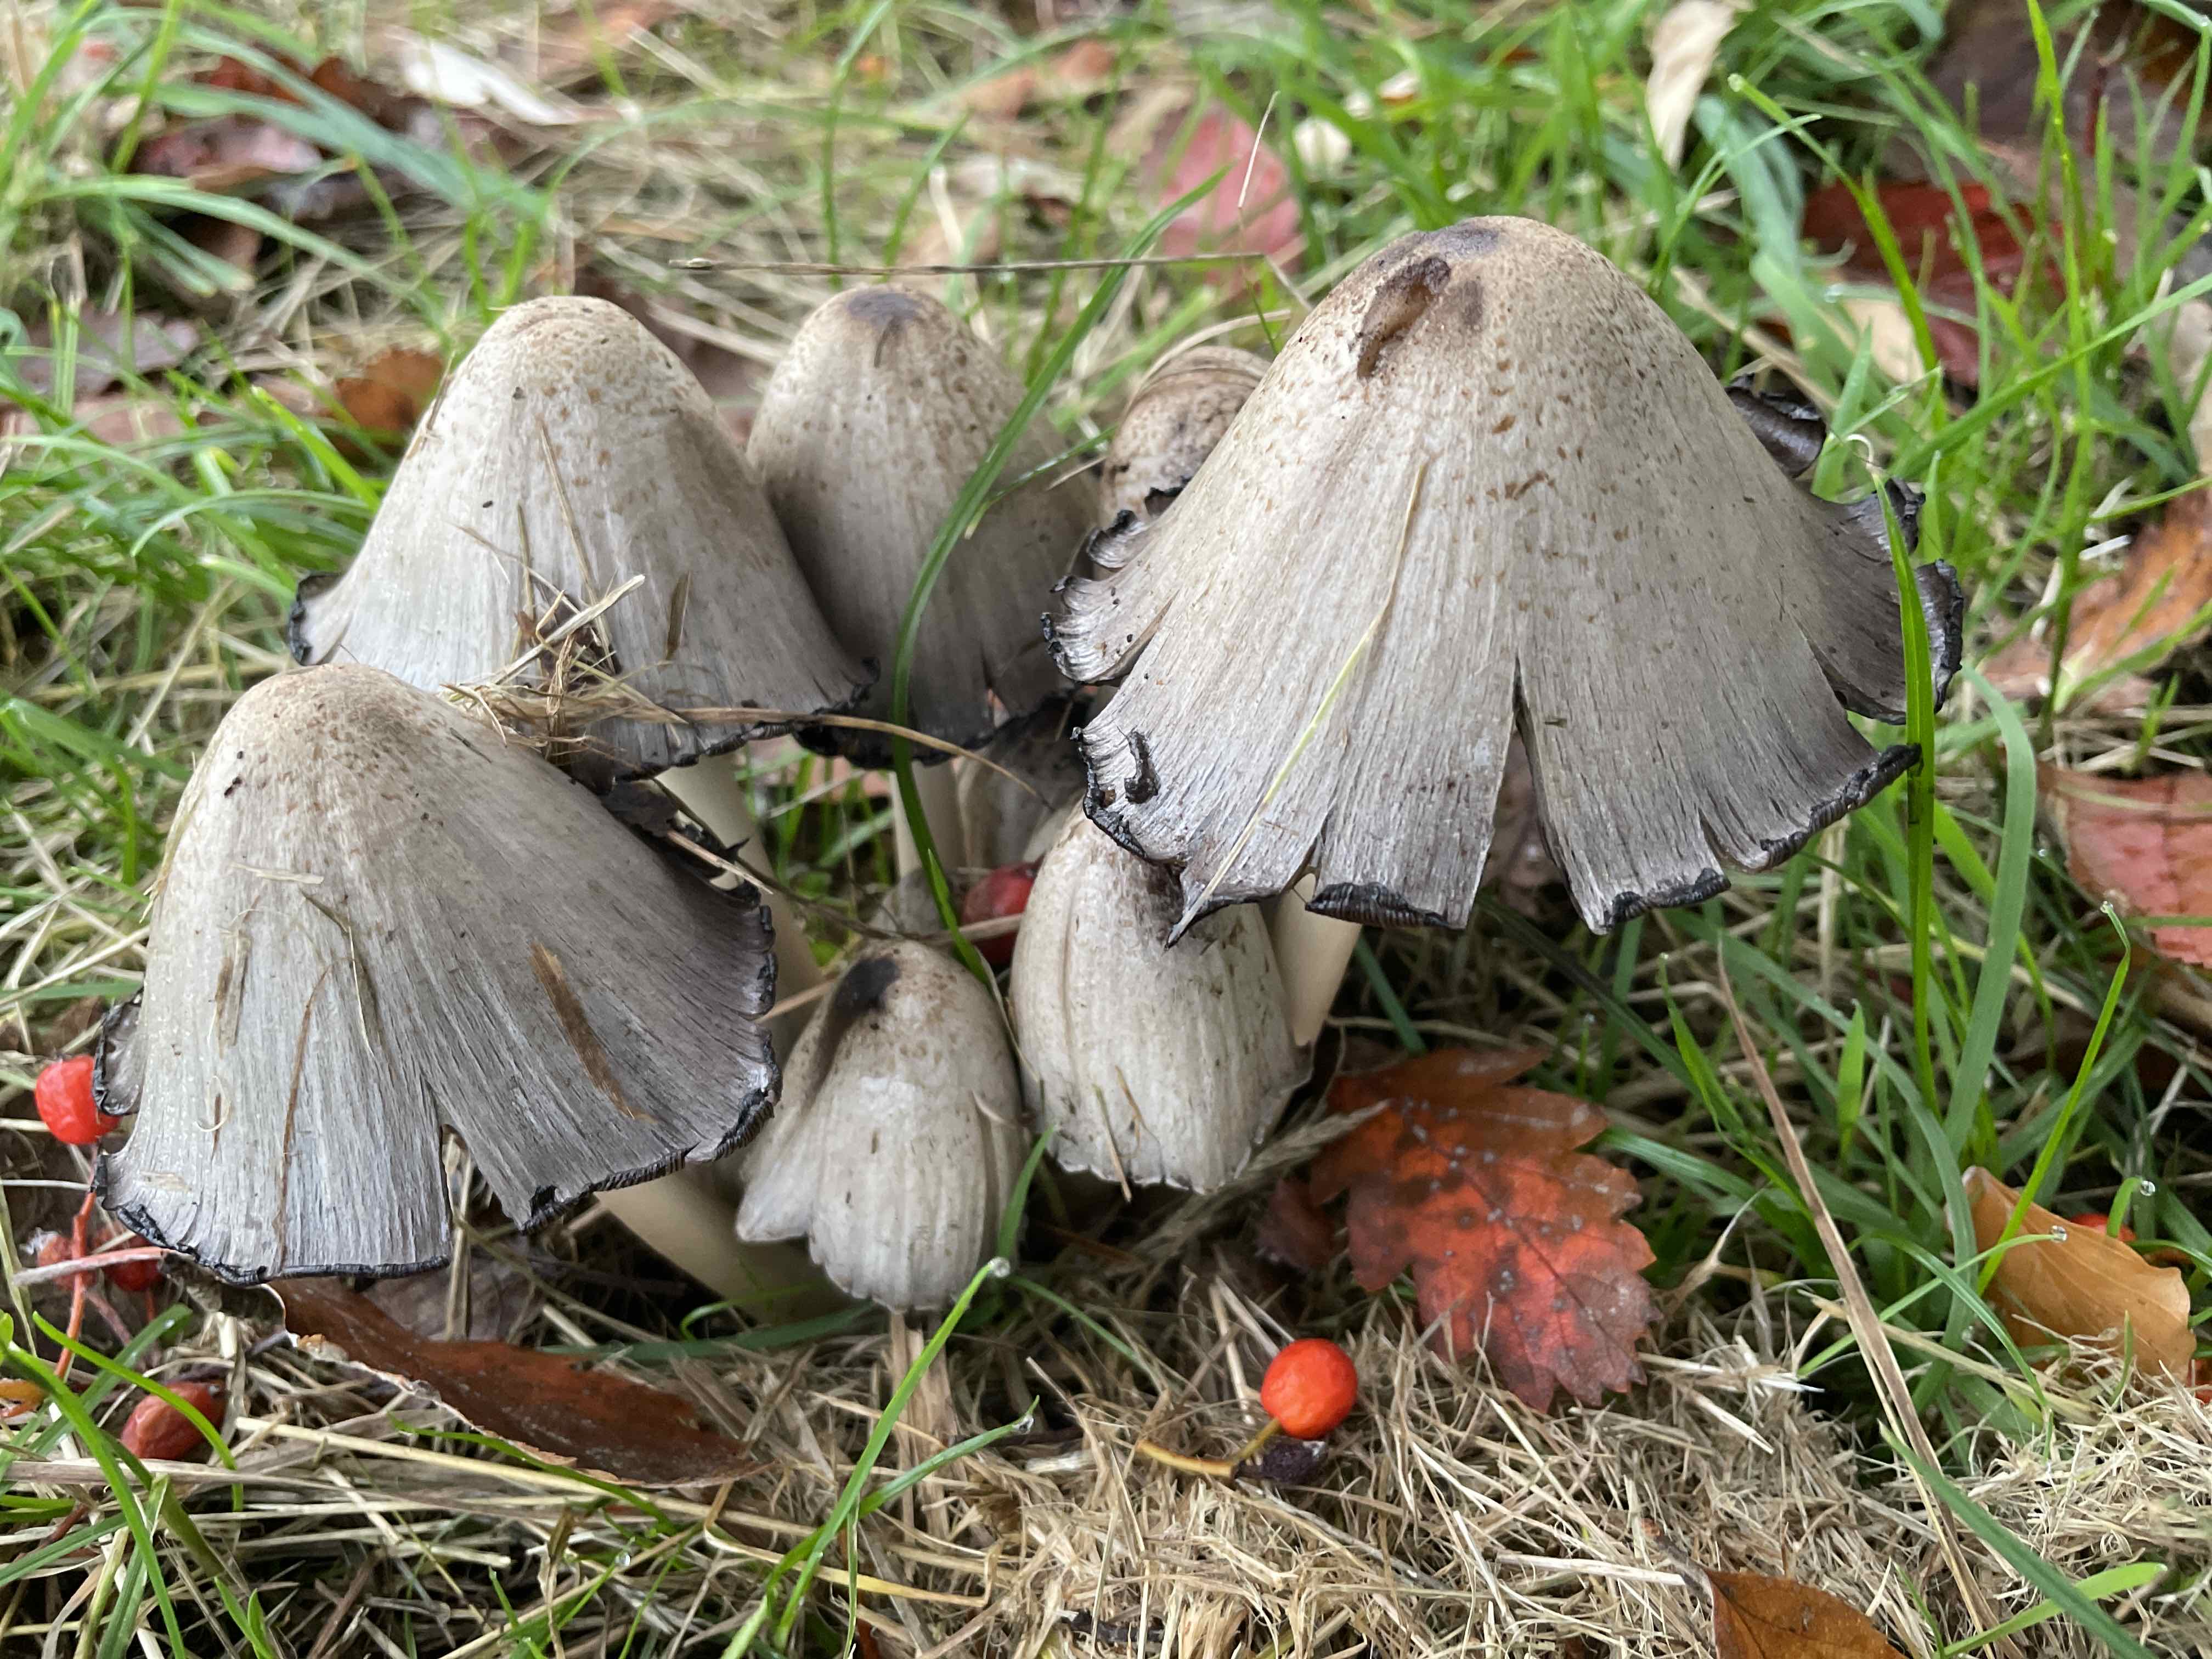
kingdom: Fungi
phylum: Basidiomycota
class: Agaricomycetes
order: Agaricales
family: Psathyrellaceae
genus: Coprinopsis
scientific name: Coprinopsis atramentaria
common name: almindelig blækhat
